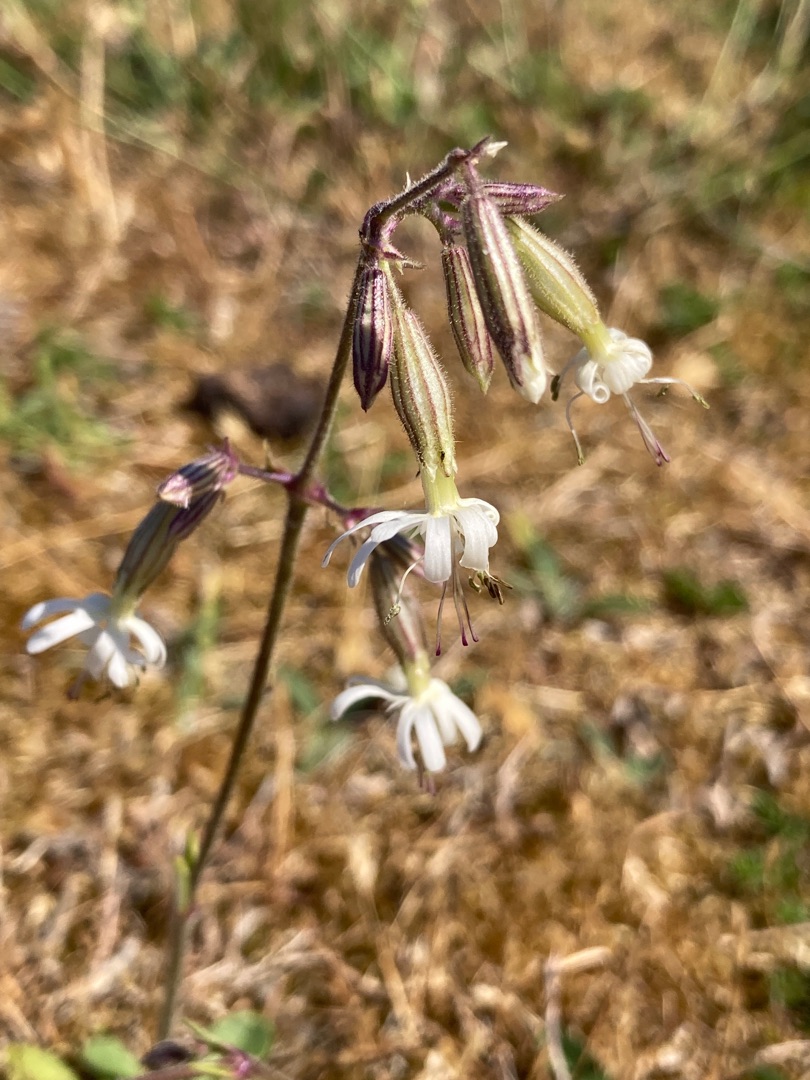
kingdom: Plantae
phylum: Tracheophyta
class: Magnoliopsida
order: Caryophyllales
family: Caryophyllaceae
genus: Silene
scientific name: Silene nutans
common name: Nikkende limurt
